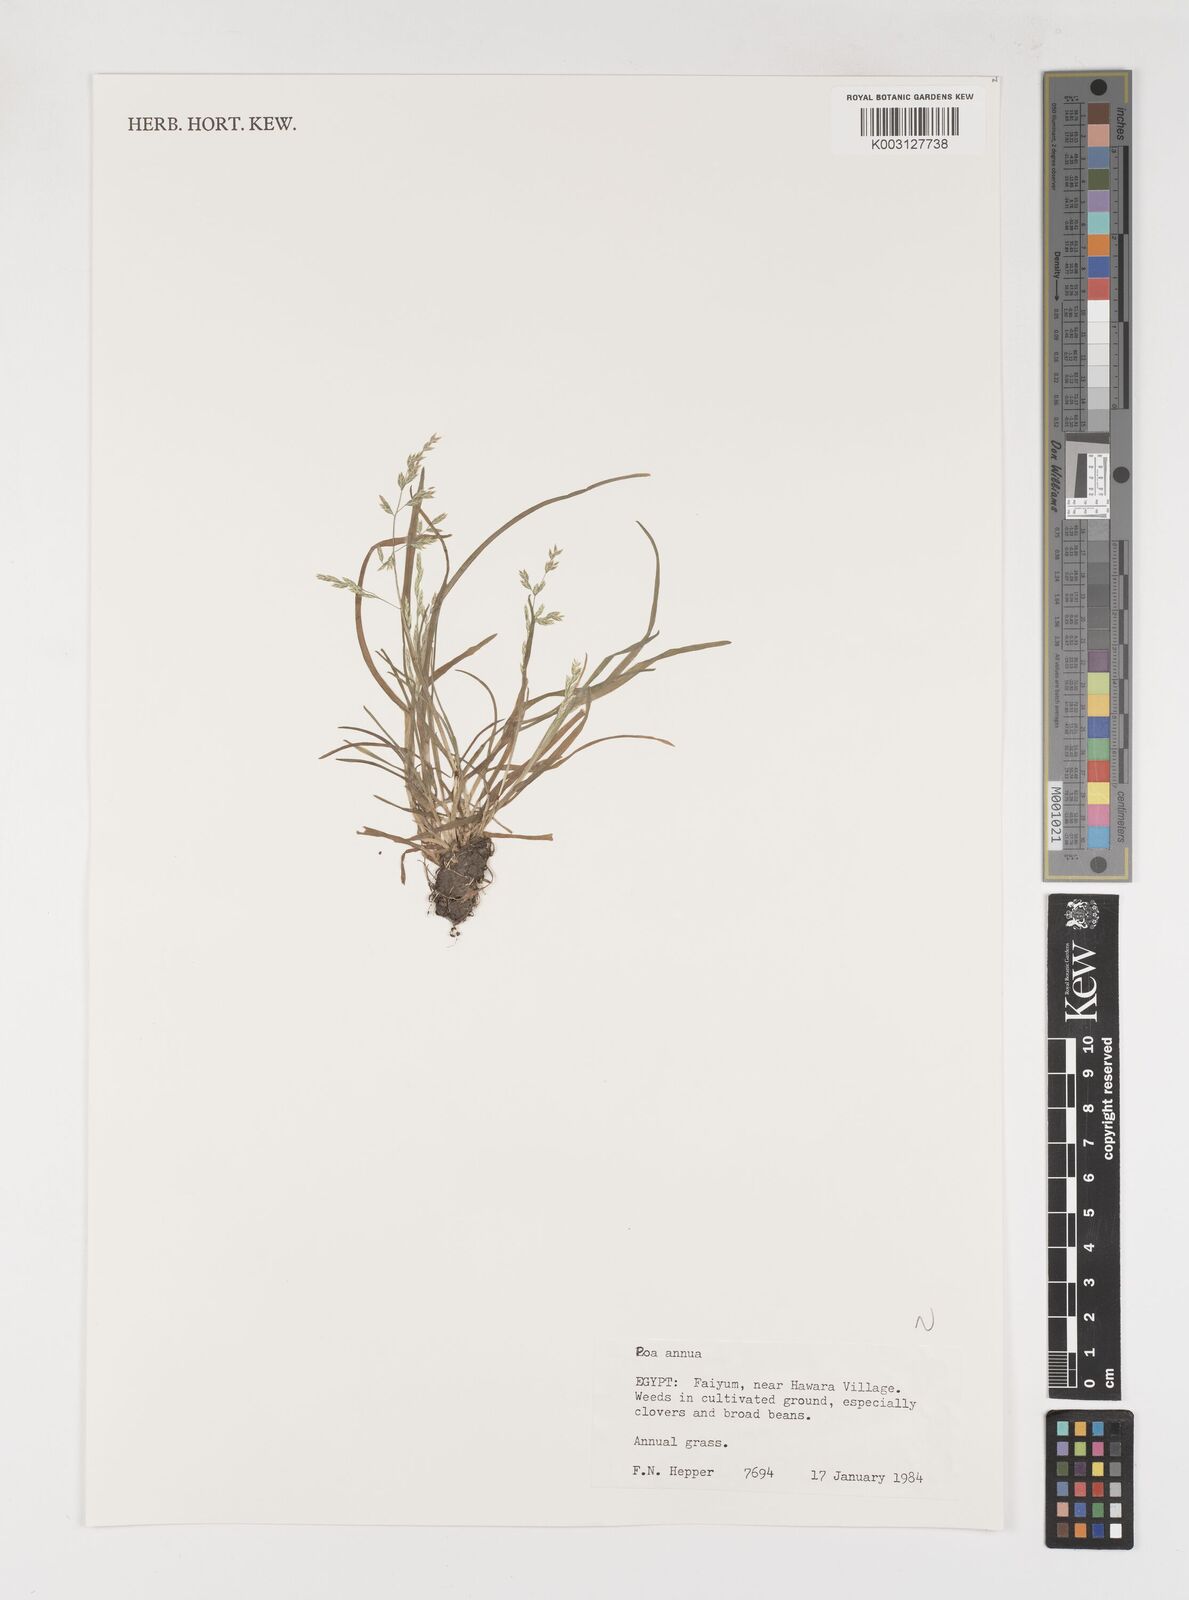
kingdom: Plantae
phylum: Tracheophyta
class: Liliopsida
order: Poales
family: Poaceae
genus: Poa
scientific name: Poa annua
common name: Annual bluegrass
